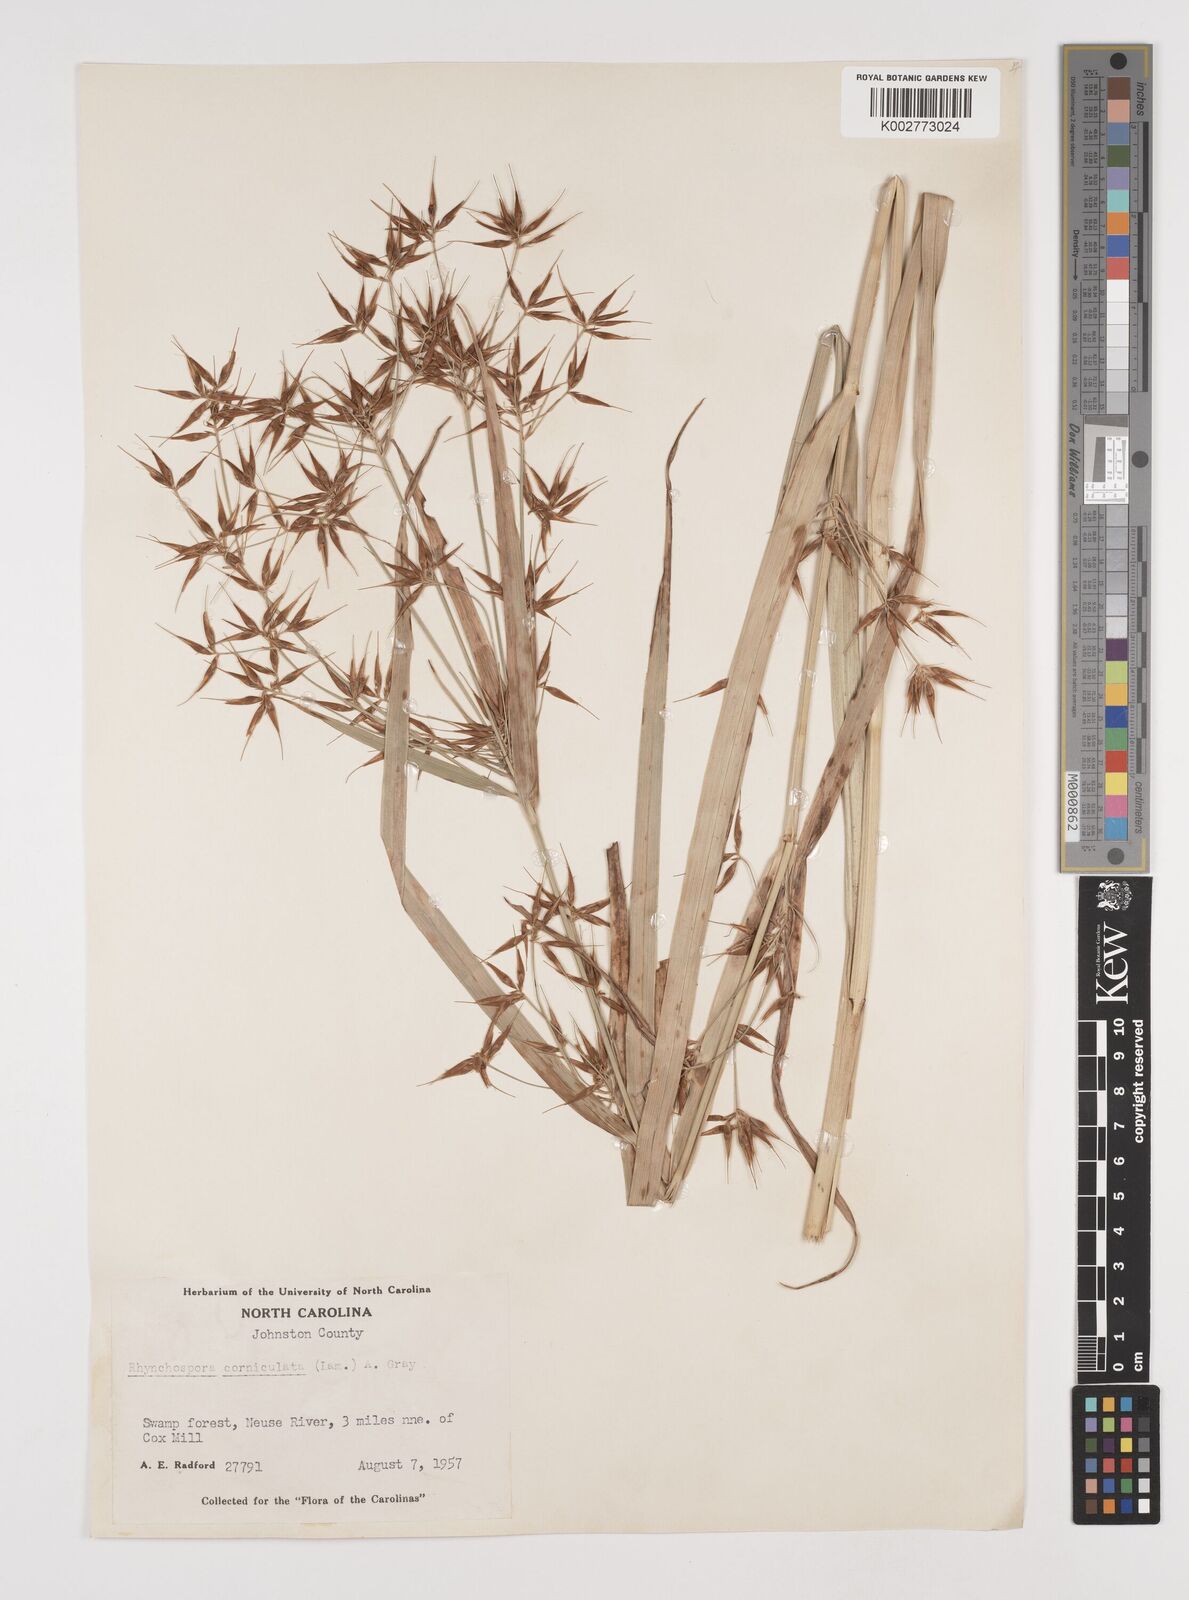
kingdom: Plantae
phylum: Tracheophyta
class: Liliopsida
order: Poales
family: Cyperaceae
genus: Rhynchospora
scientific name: Rhynchospora corniculata
